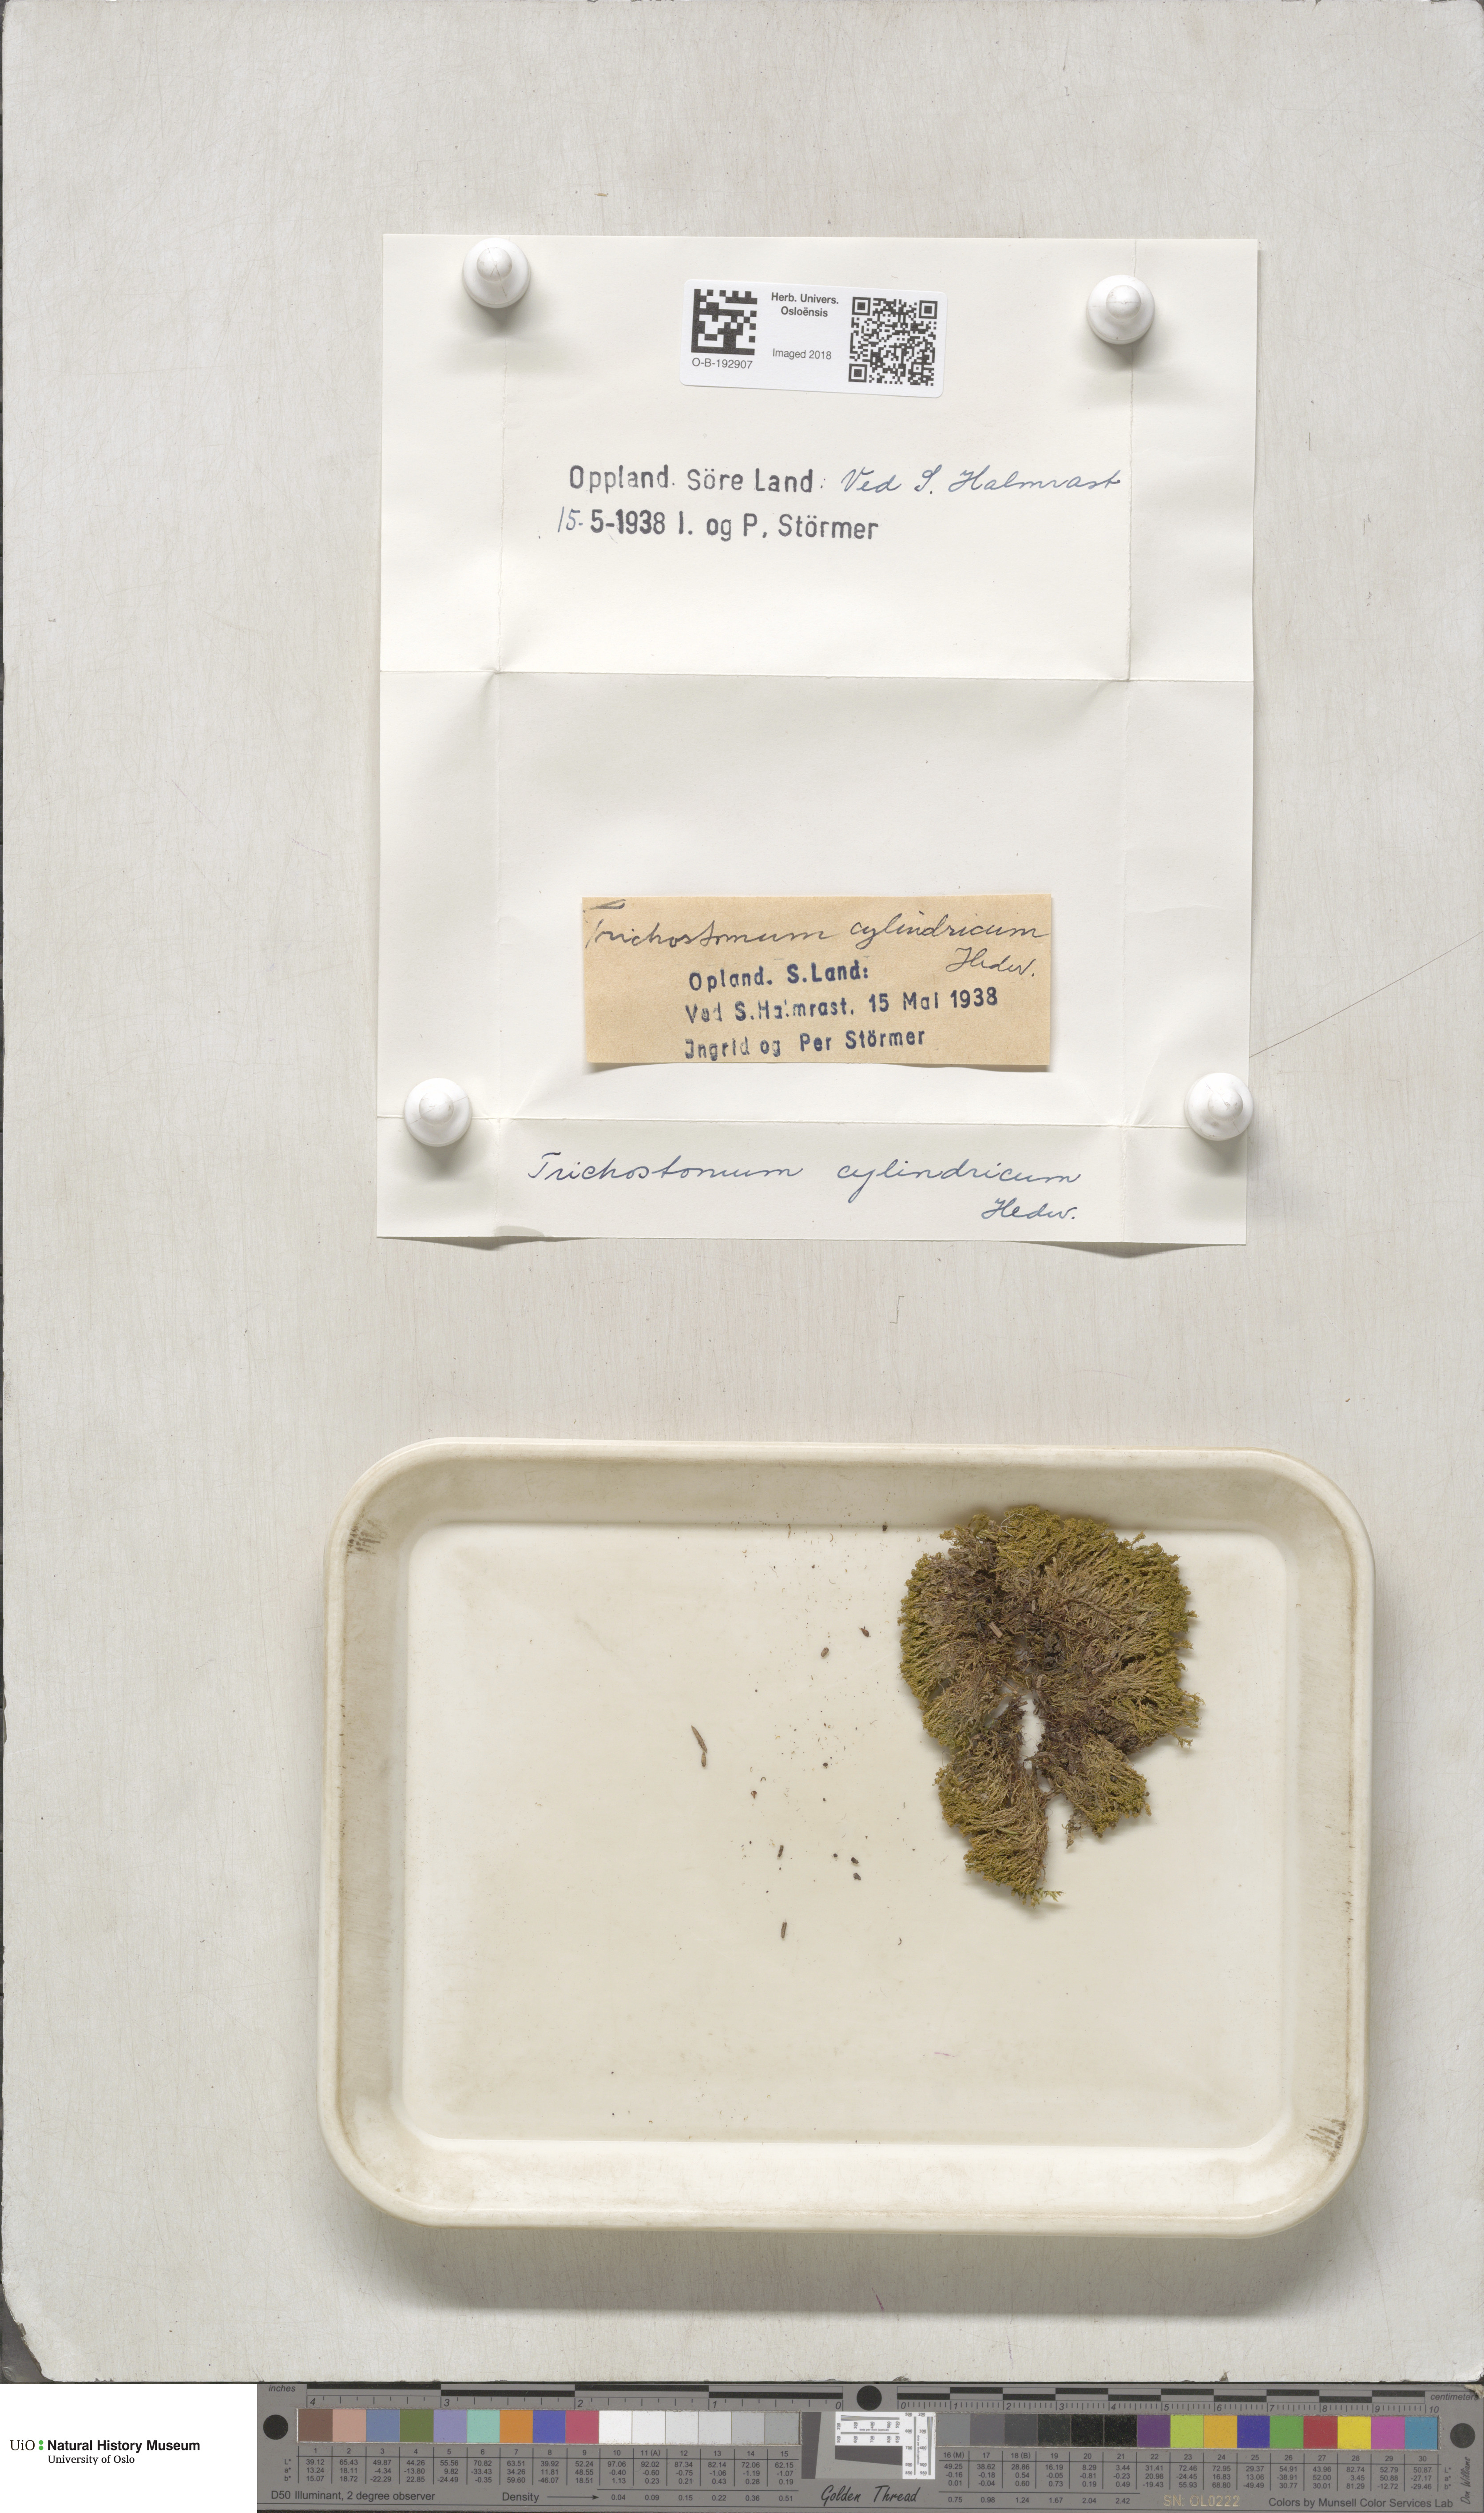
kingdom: Plantae
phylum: Bryophyta
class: Bryopsida
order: Pottiales
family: Pottiaceae
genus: Chionoloma
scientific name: Chionoloma tenuirostre
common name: Narrow-fruited crisp-moss
